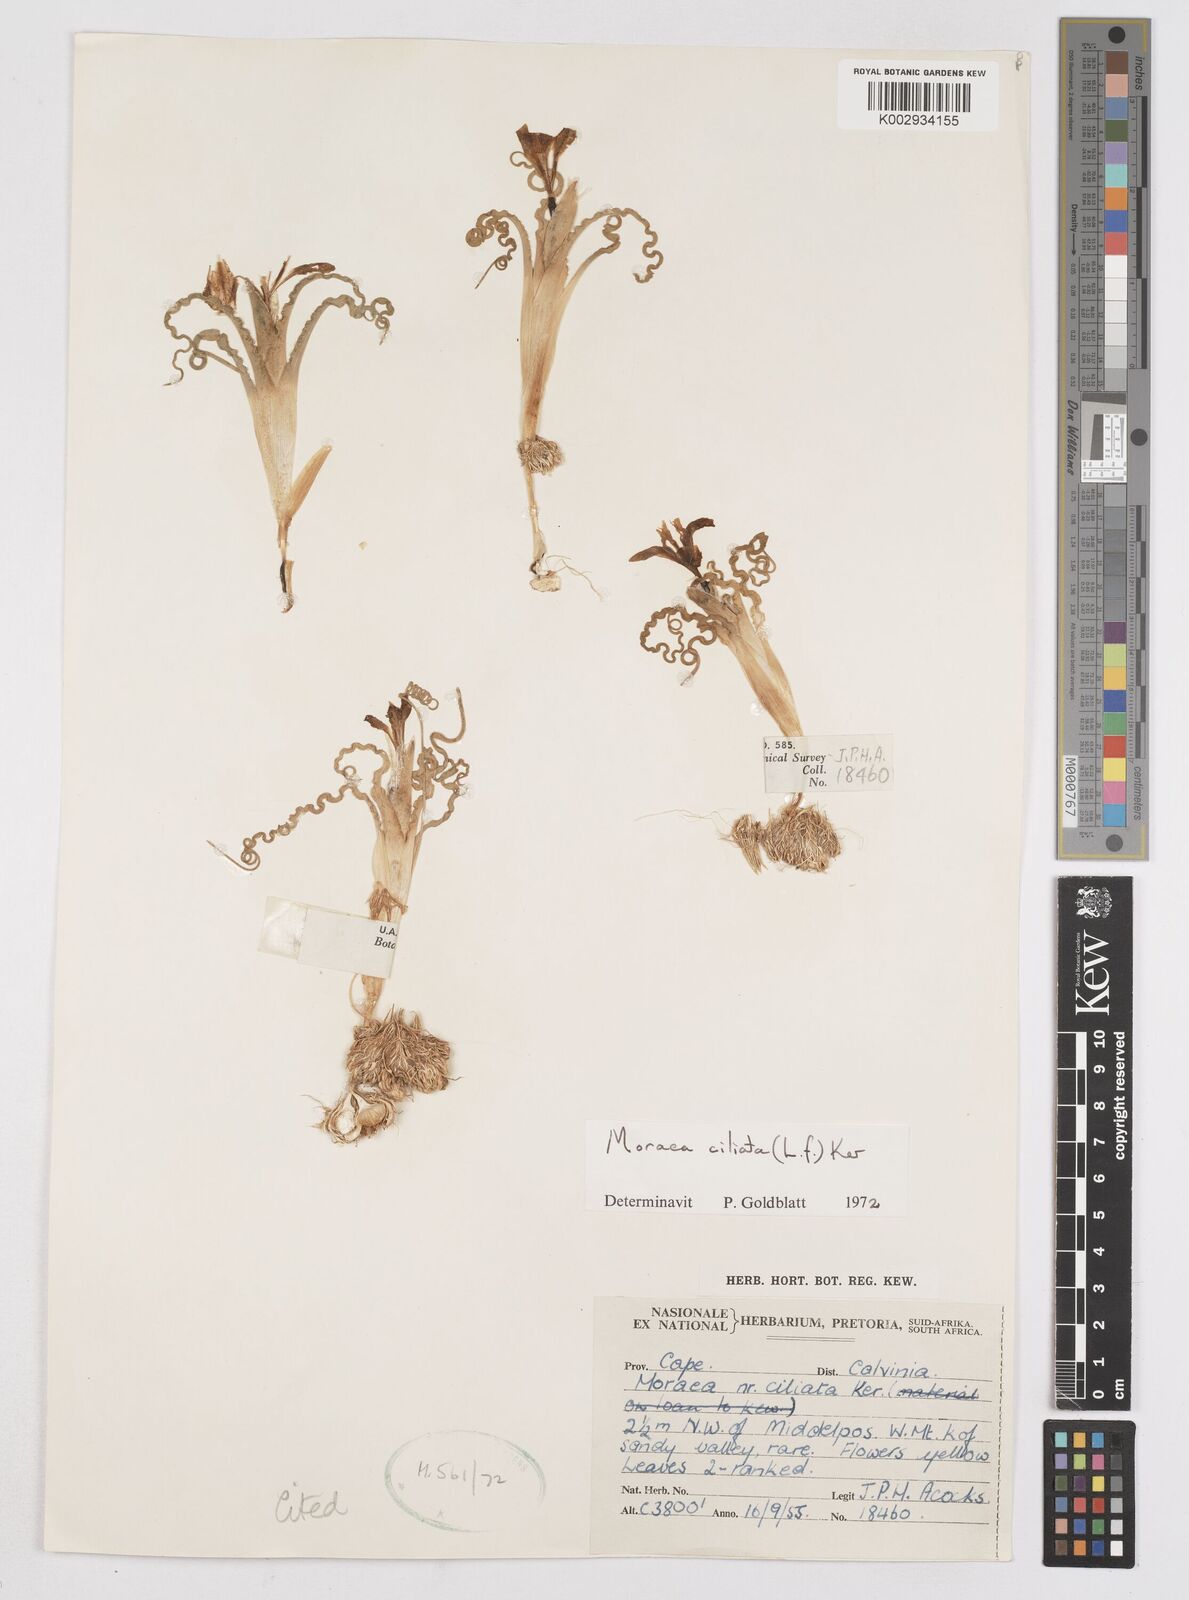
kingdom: Plantae
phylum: Tracheophyta
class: Liliopsida
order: Asparagales
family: Iridaceae
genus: Moraea
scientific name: Moraea ciliata
